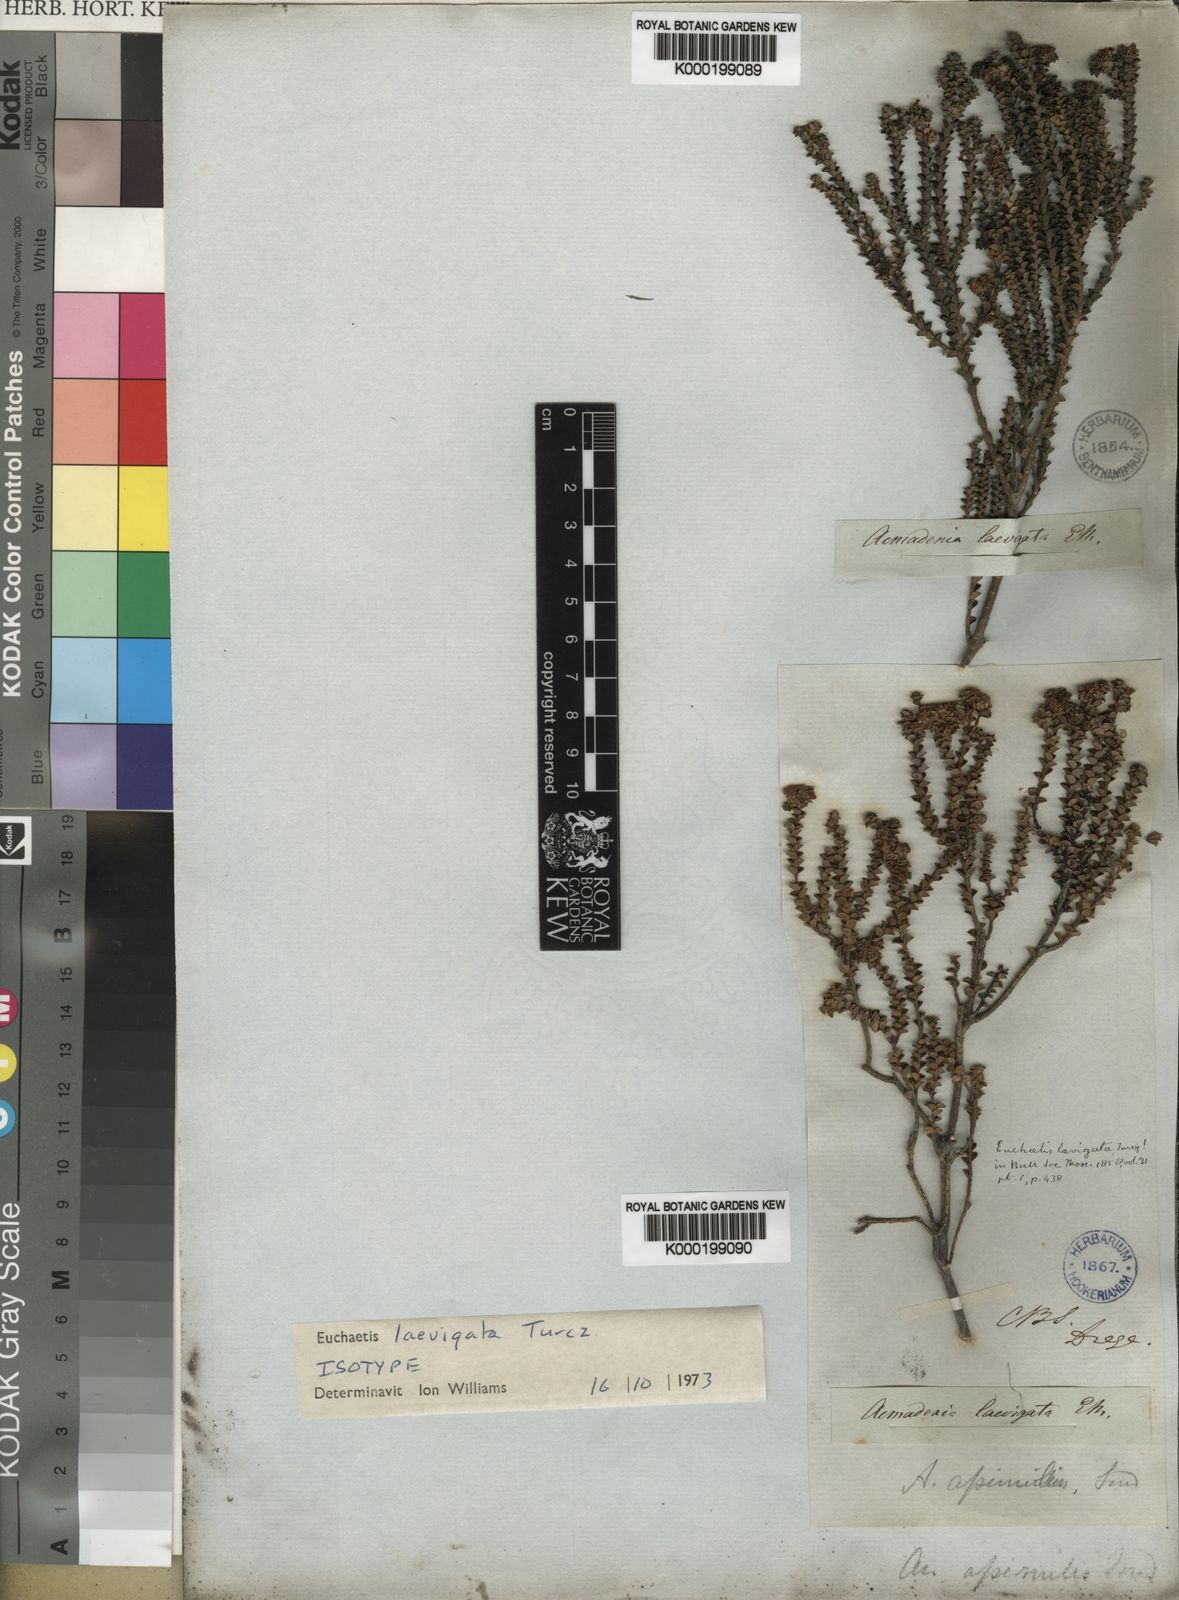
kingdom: Plantae
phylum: Tracheophyta
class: Magnoliopsida
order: Sapindales
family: Rutaceae
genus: Euchaetis
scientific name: Euchaetis laevigata
